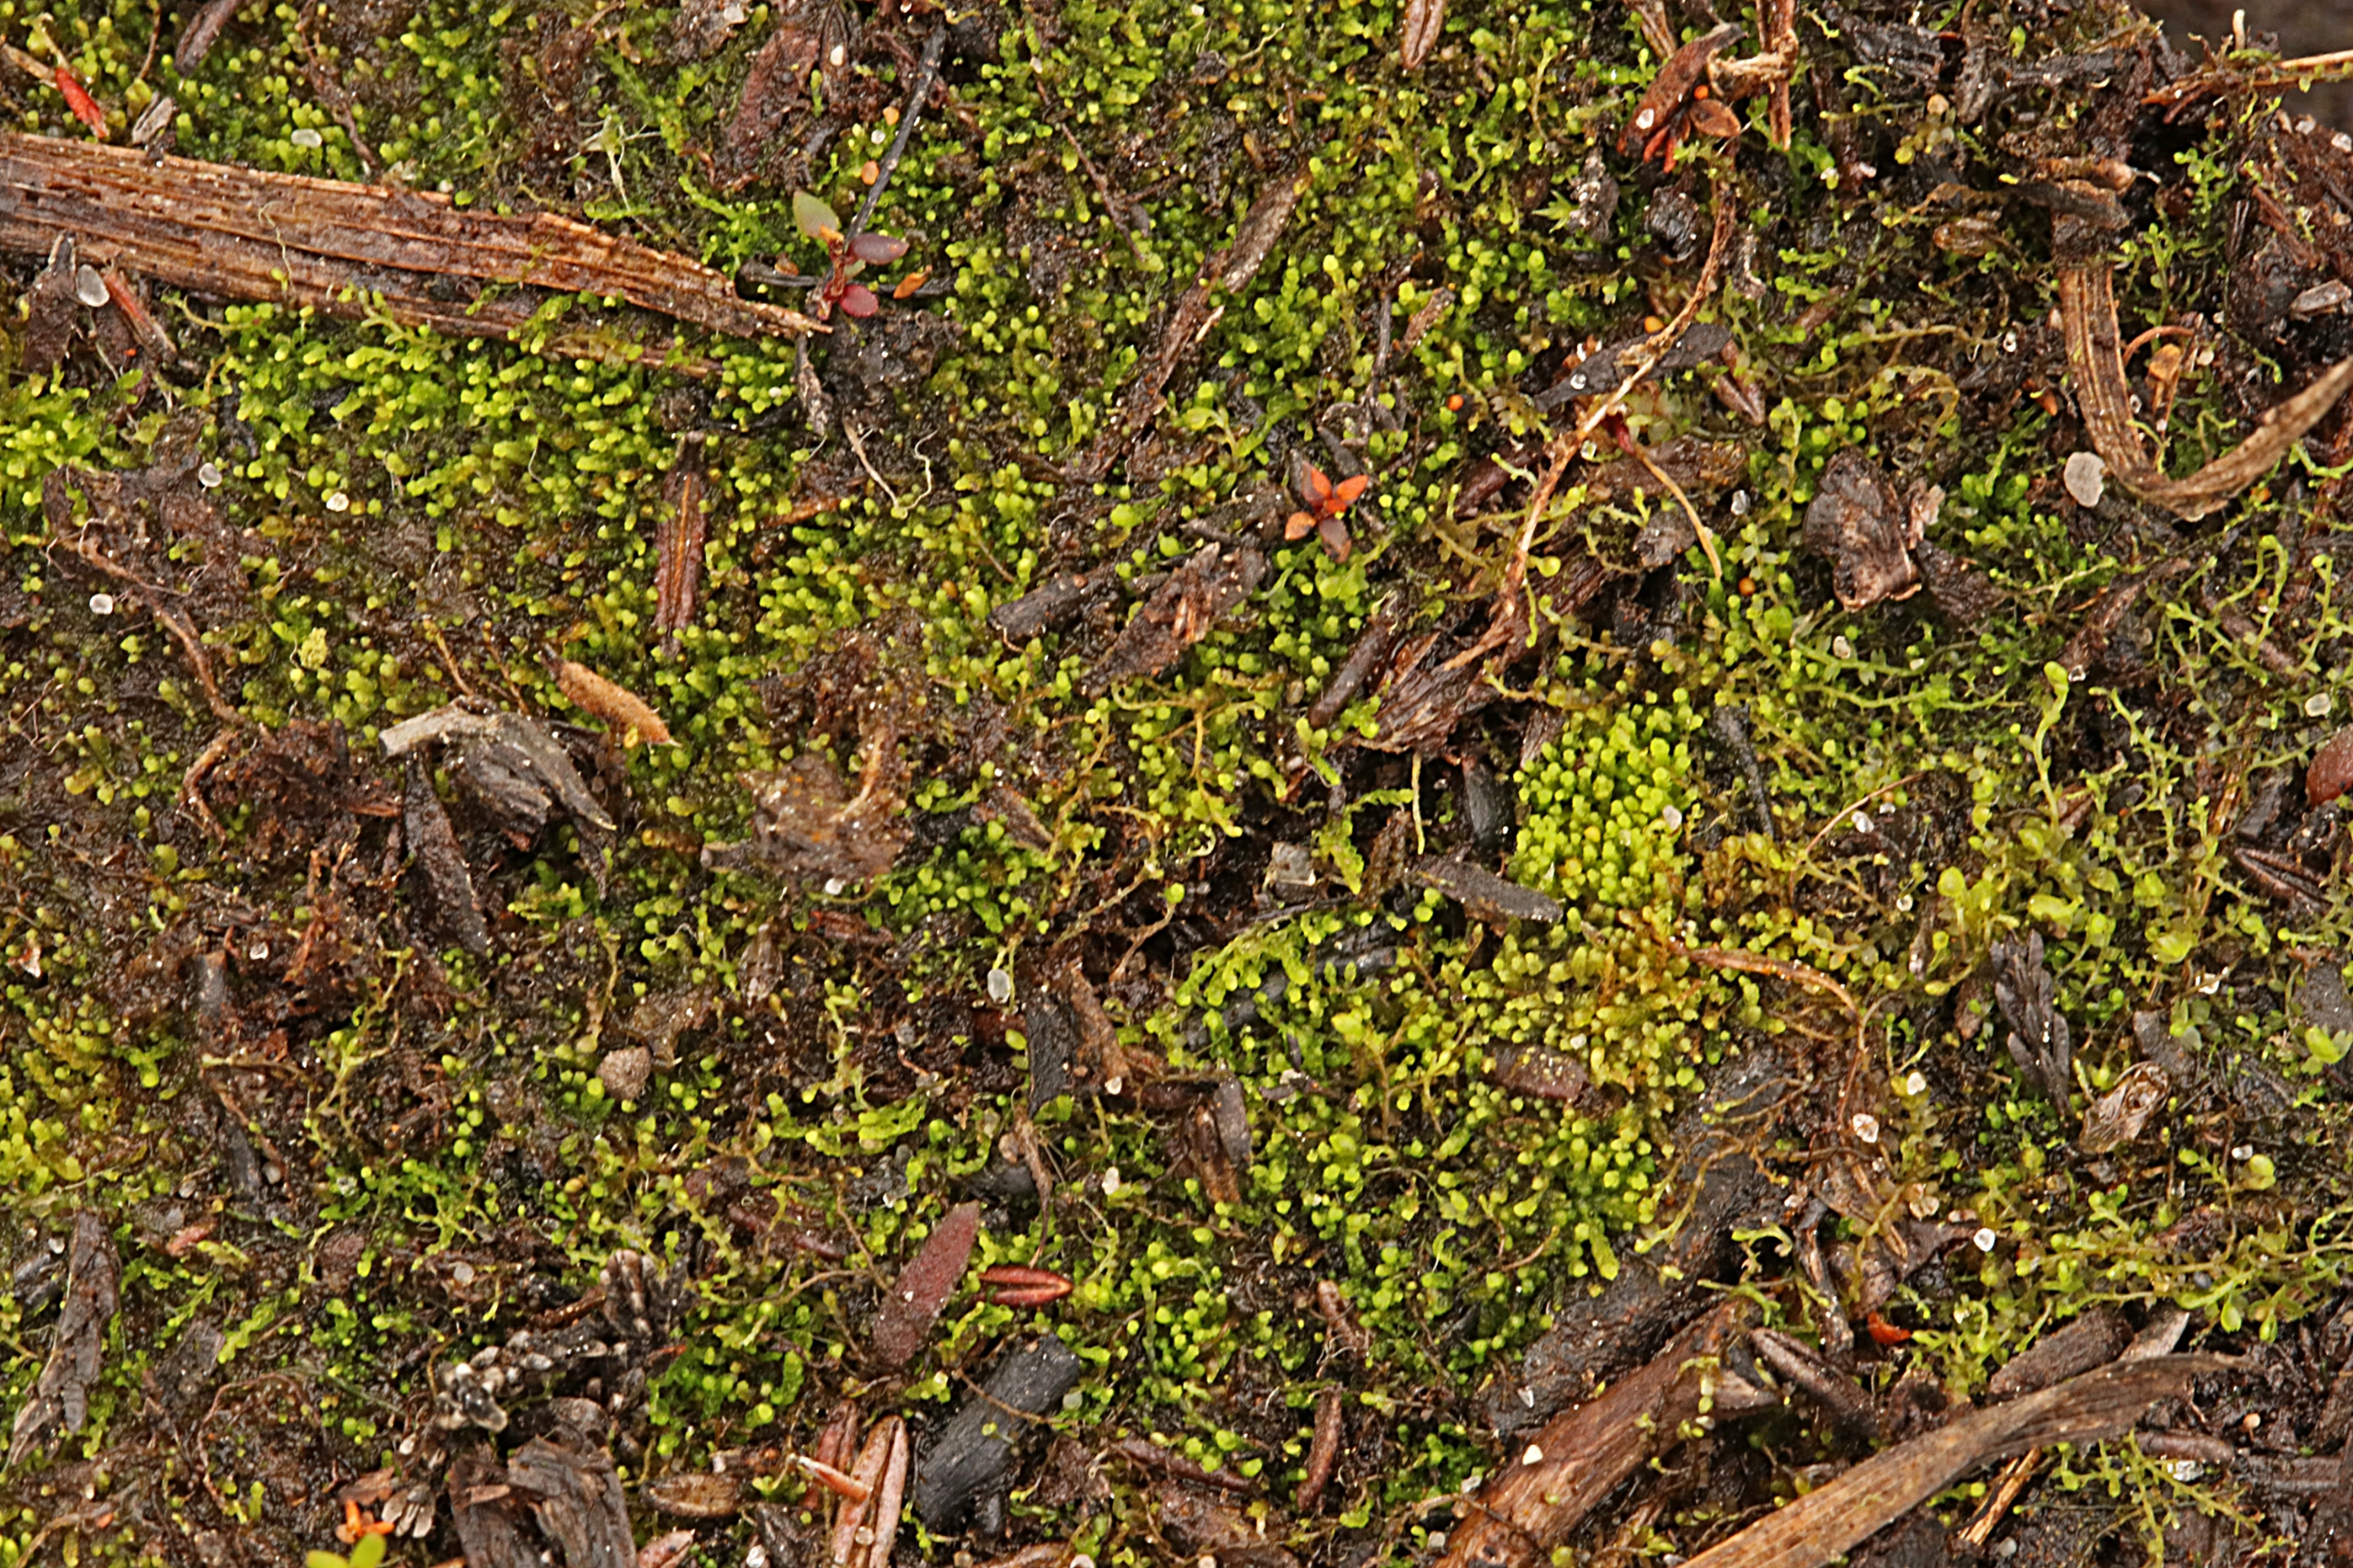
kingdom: Plantae
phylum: Marchantiophyta
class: Jungermanniopsida
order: Jungermanniales
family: Cephaloziaceae
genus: Odontoschisma
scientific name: Odontoschisma fluitans
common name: Tørve-vævmos
